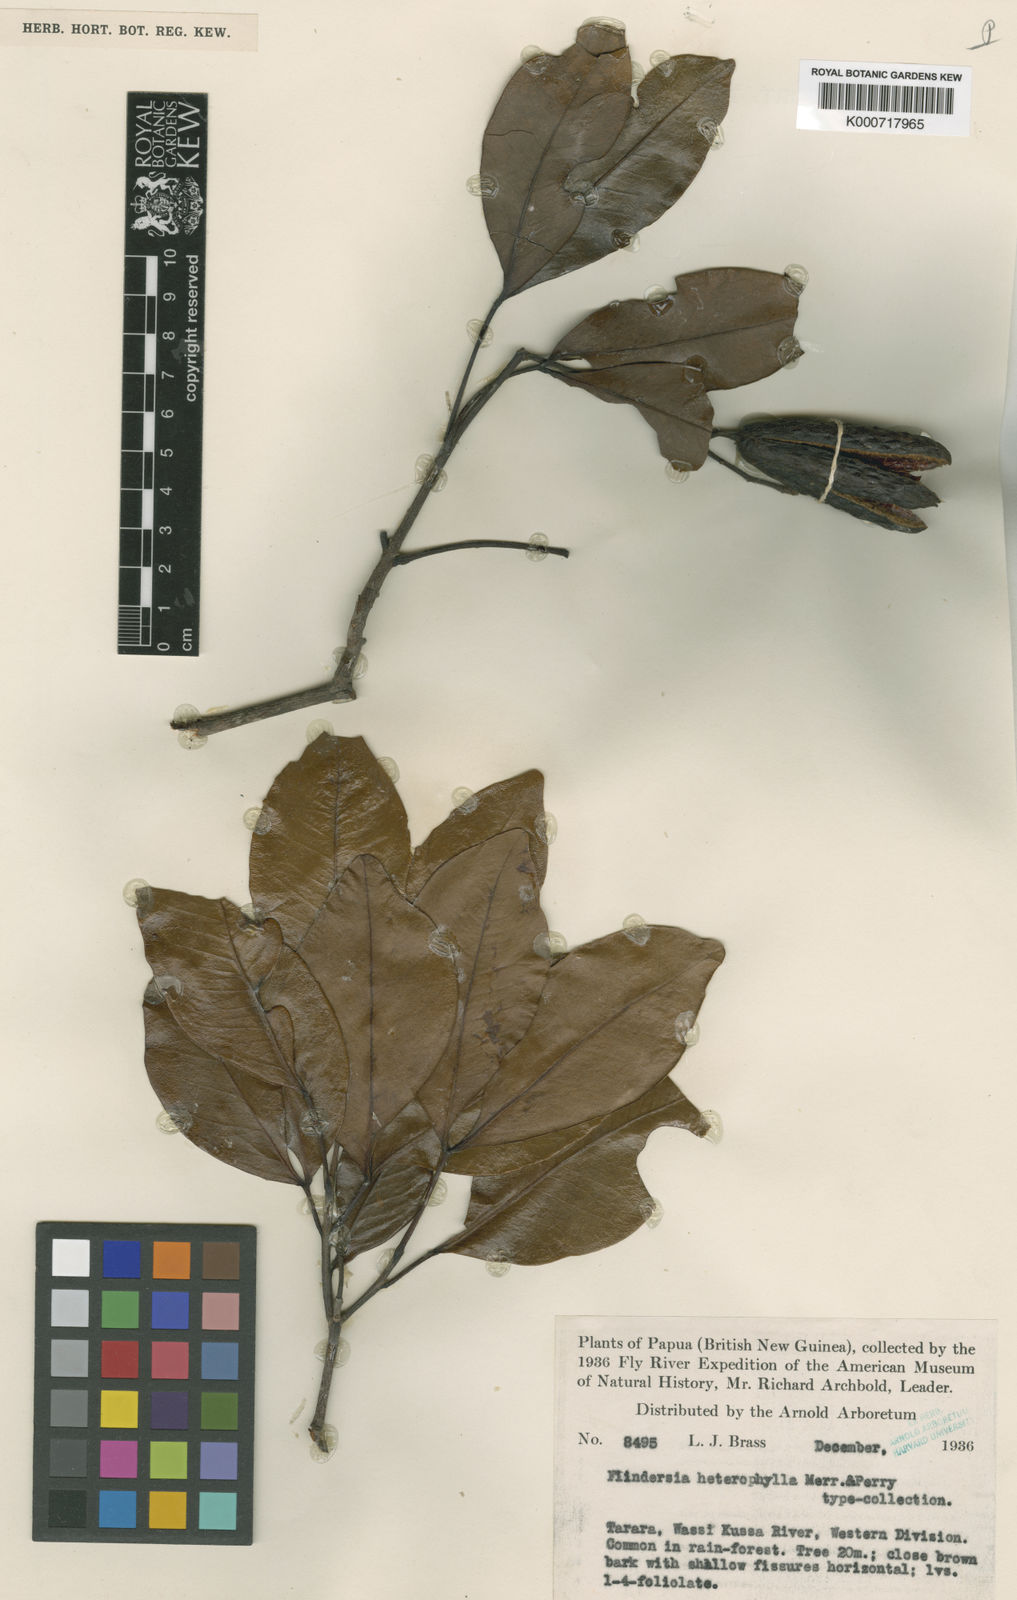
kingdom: Plantae
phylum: Tracheophyta
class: Magnoliopsida
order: Sapindales
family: Rutaceae
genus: Flindersia
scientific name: Flindersia laevicarpa
